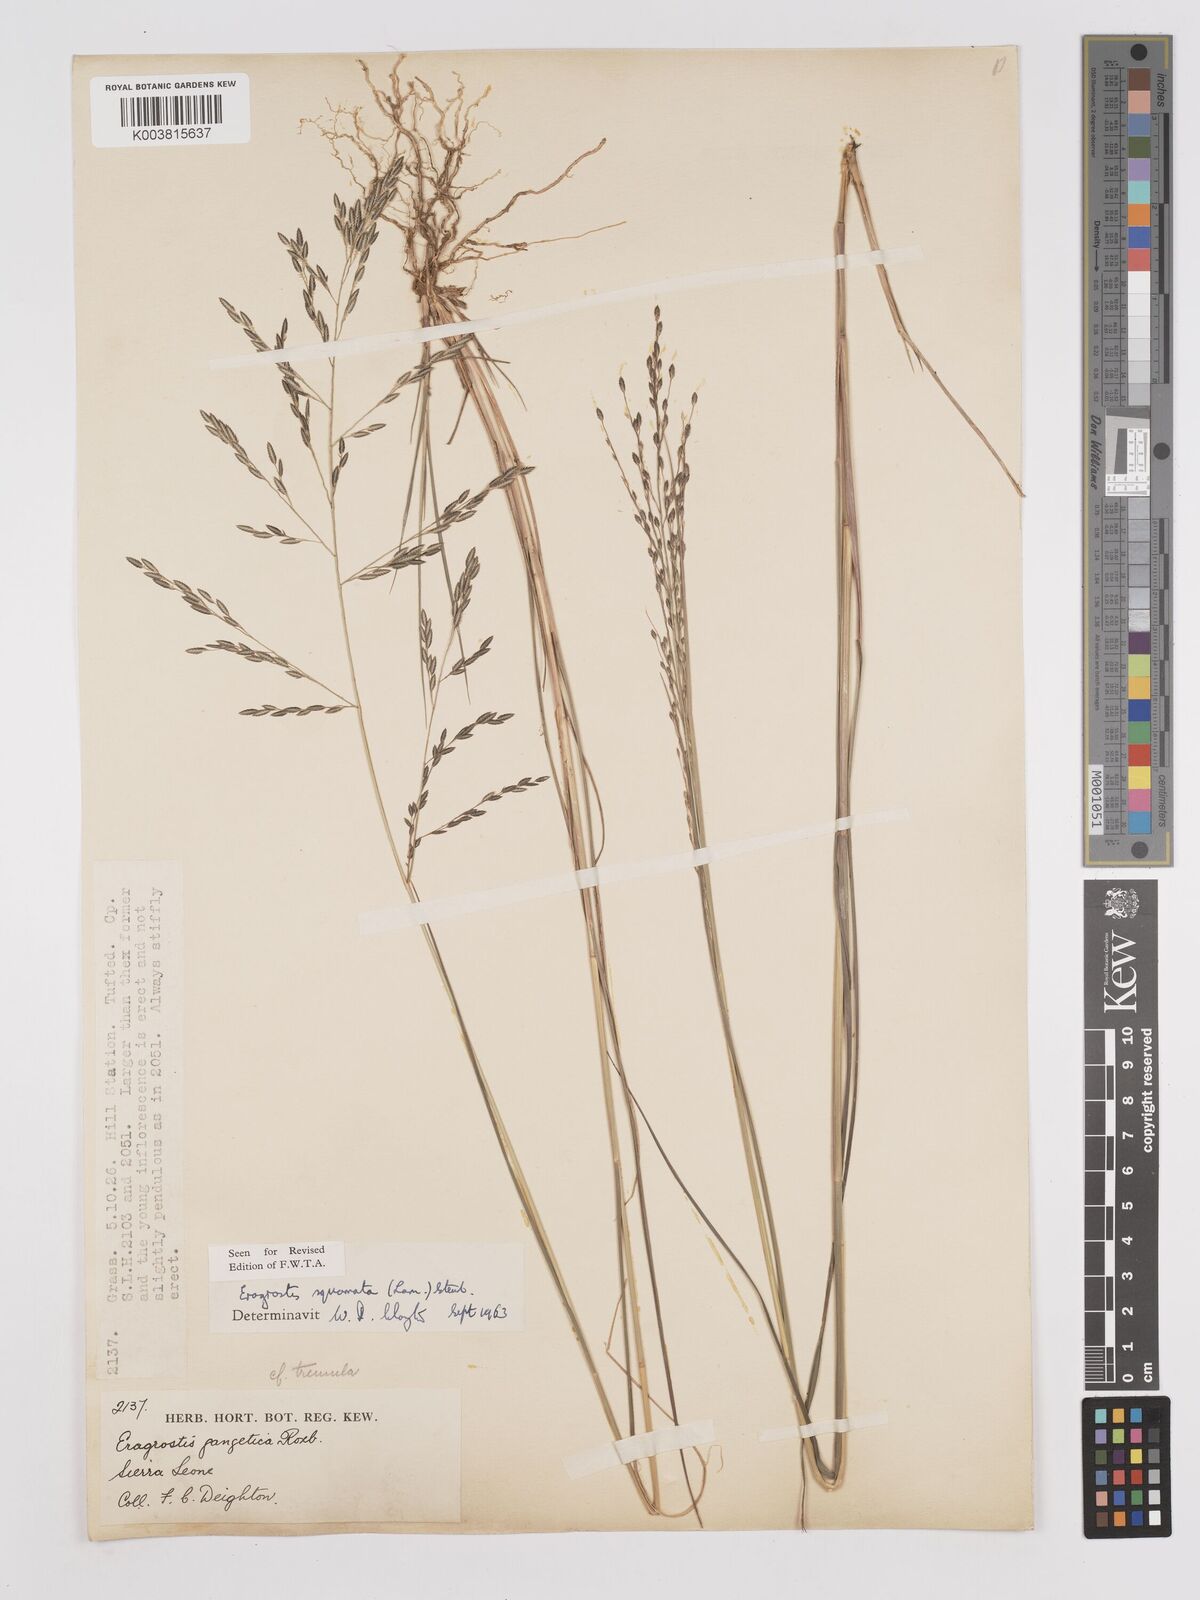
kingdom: Plantae
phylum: Tracheophyta
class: Liliopsida
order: Poales
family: Poaceae
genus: Eragrostis
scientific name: Eragrostis squamata
